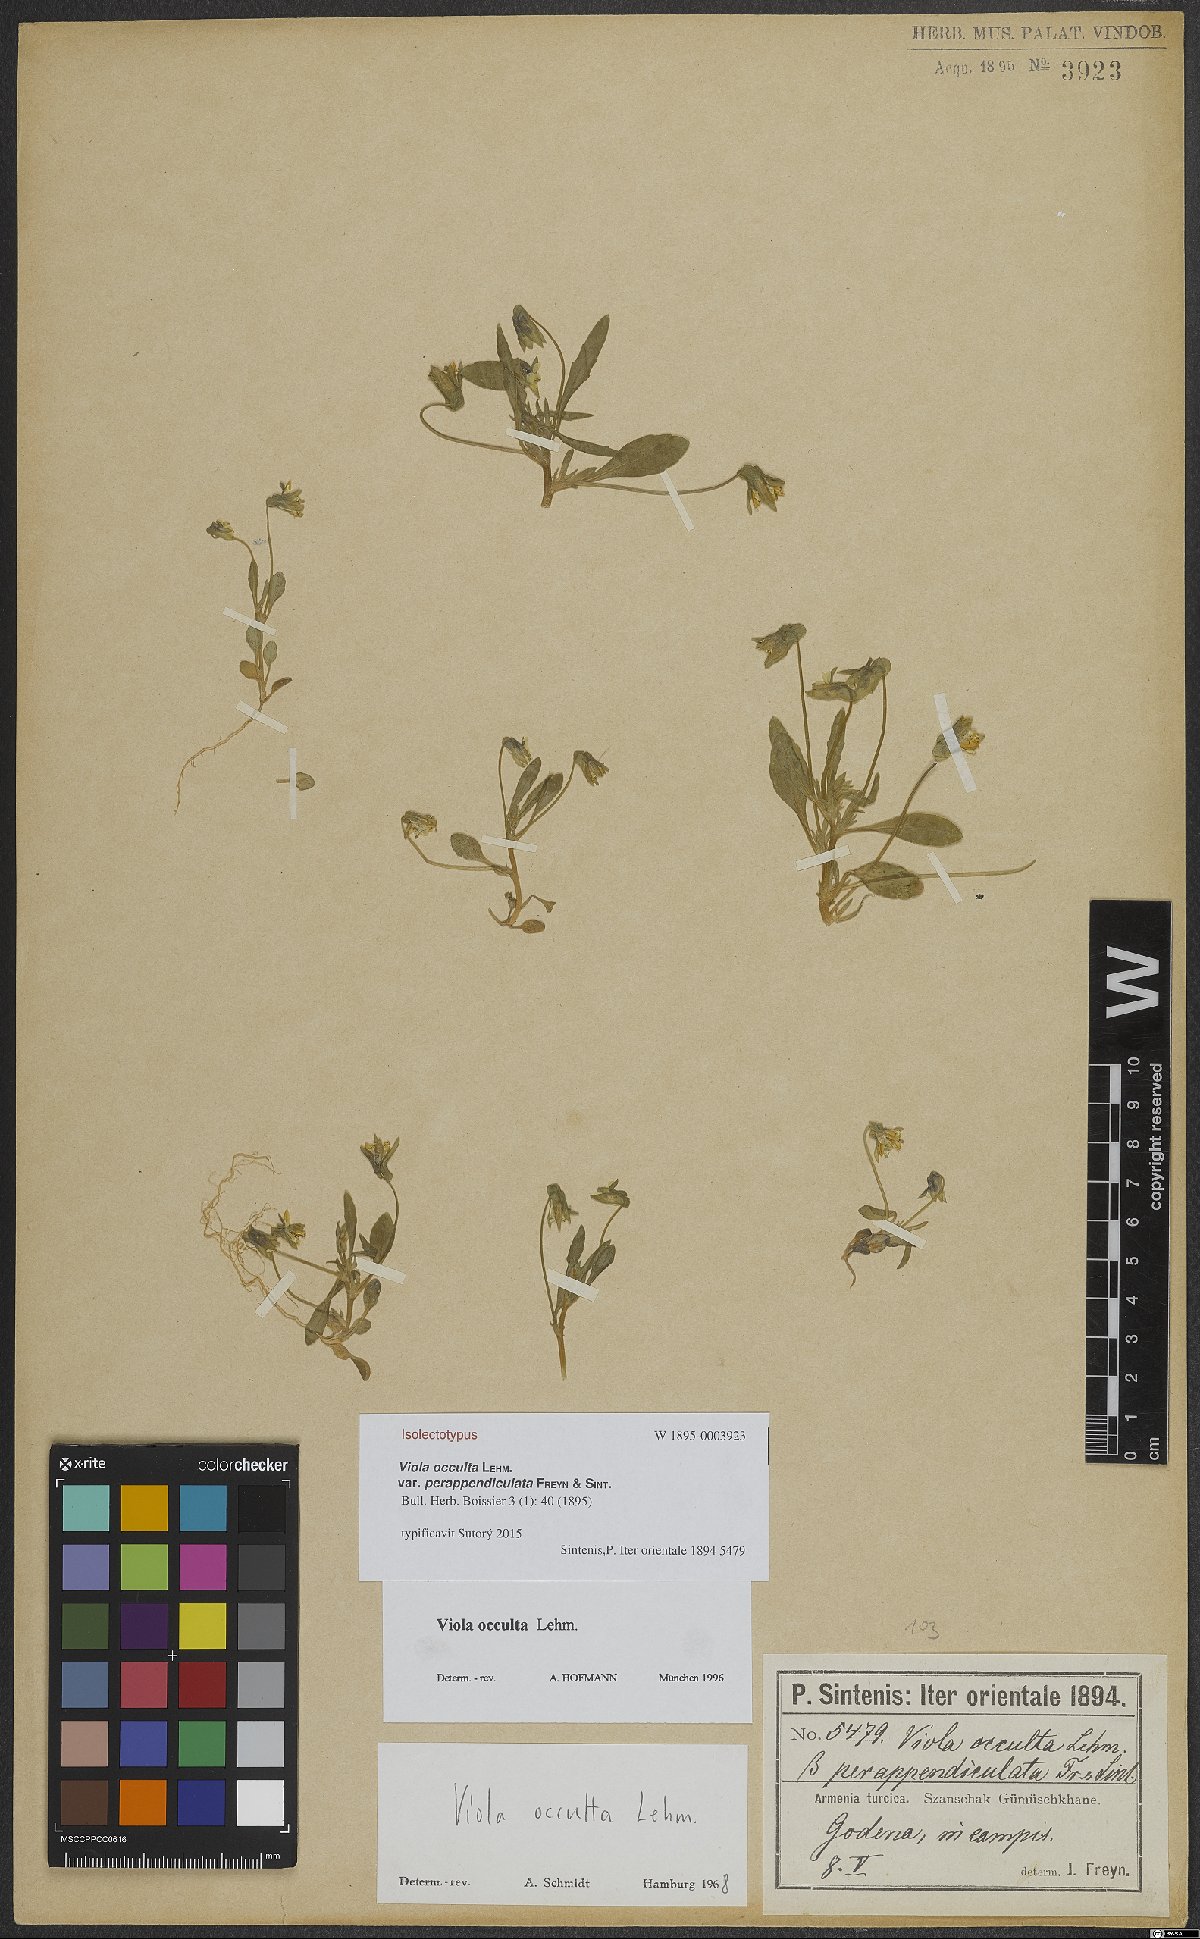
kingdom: Plantae
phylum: Tracheophyta
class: Magnoliopsida
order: Malpighiales
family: Violaceae
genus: Viola
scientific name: Viola occulta
